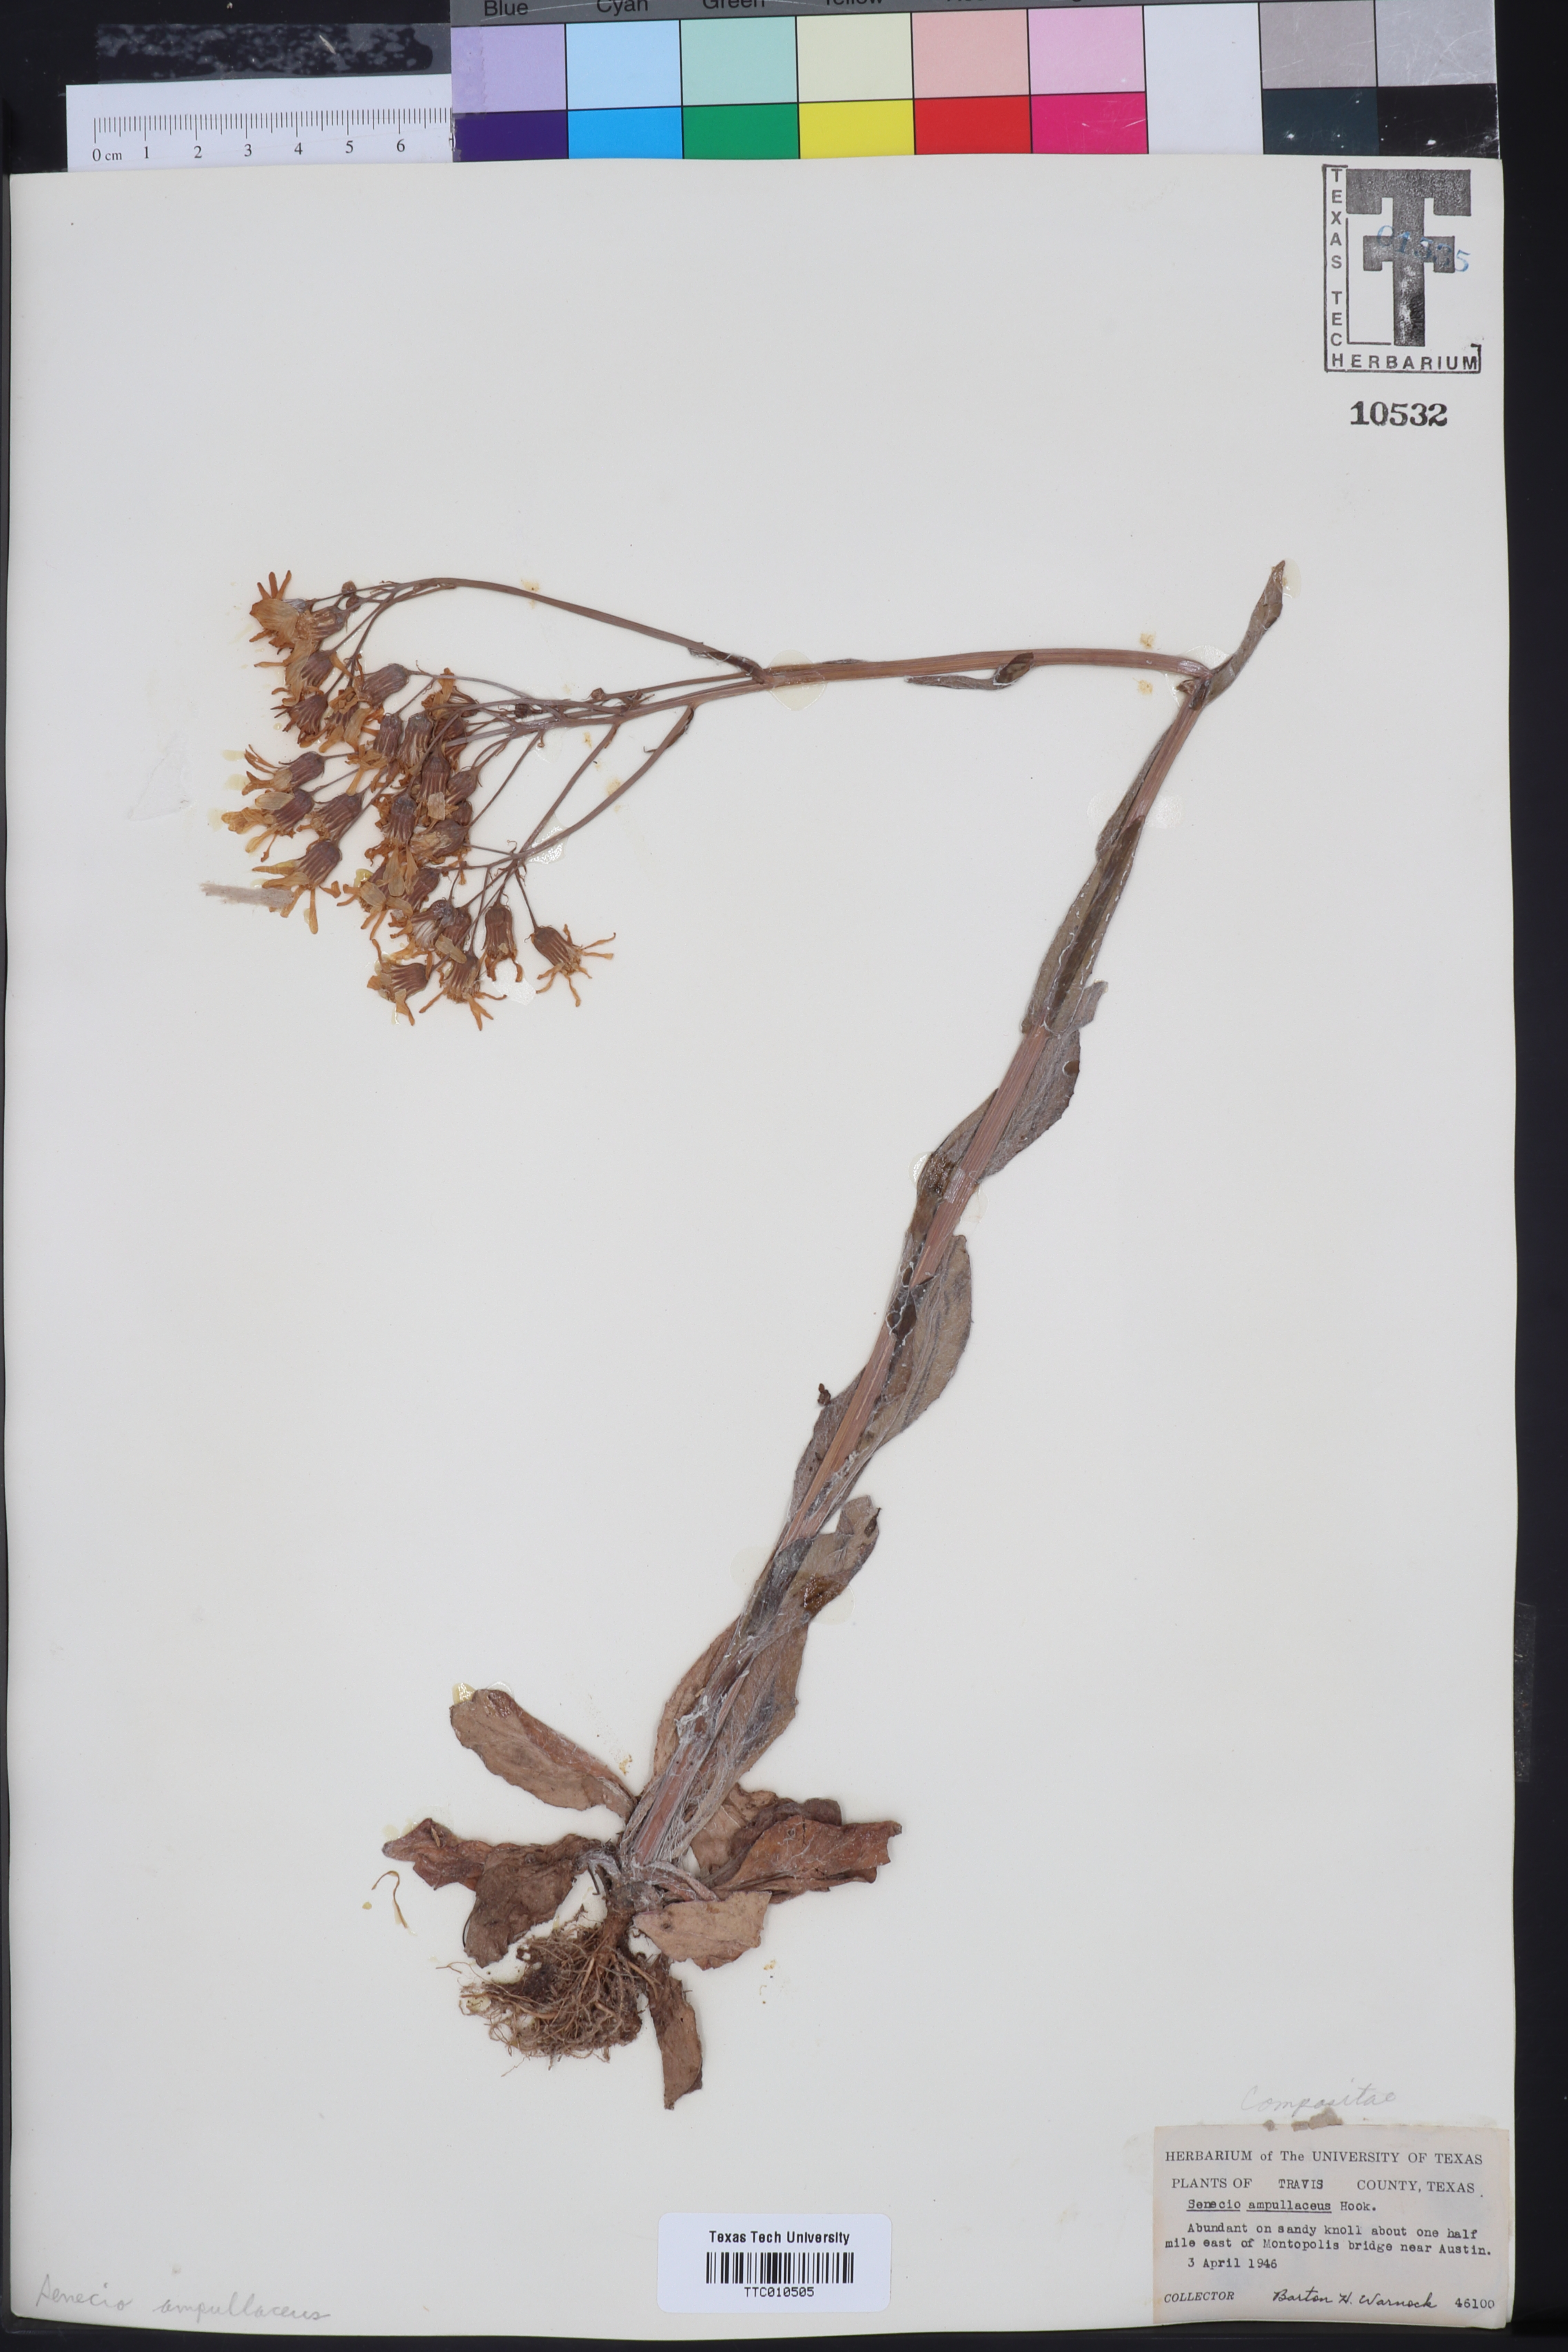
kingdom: Plantae
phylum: Tracheophyta
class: Magnoliopsida
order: Asterales
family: Asteraceae
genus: Senecio
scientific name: Senecio ampullaceus
